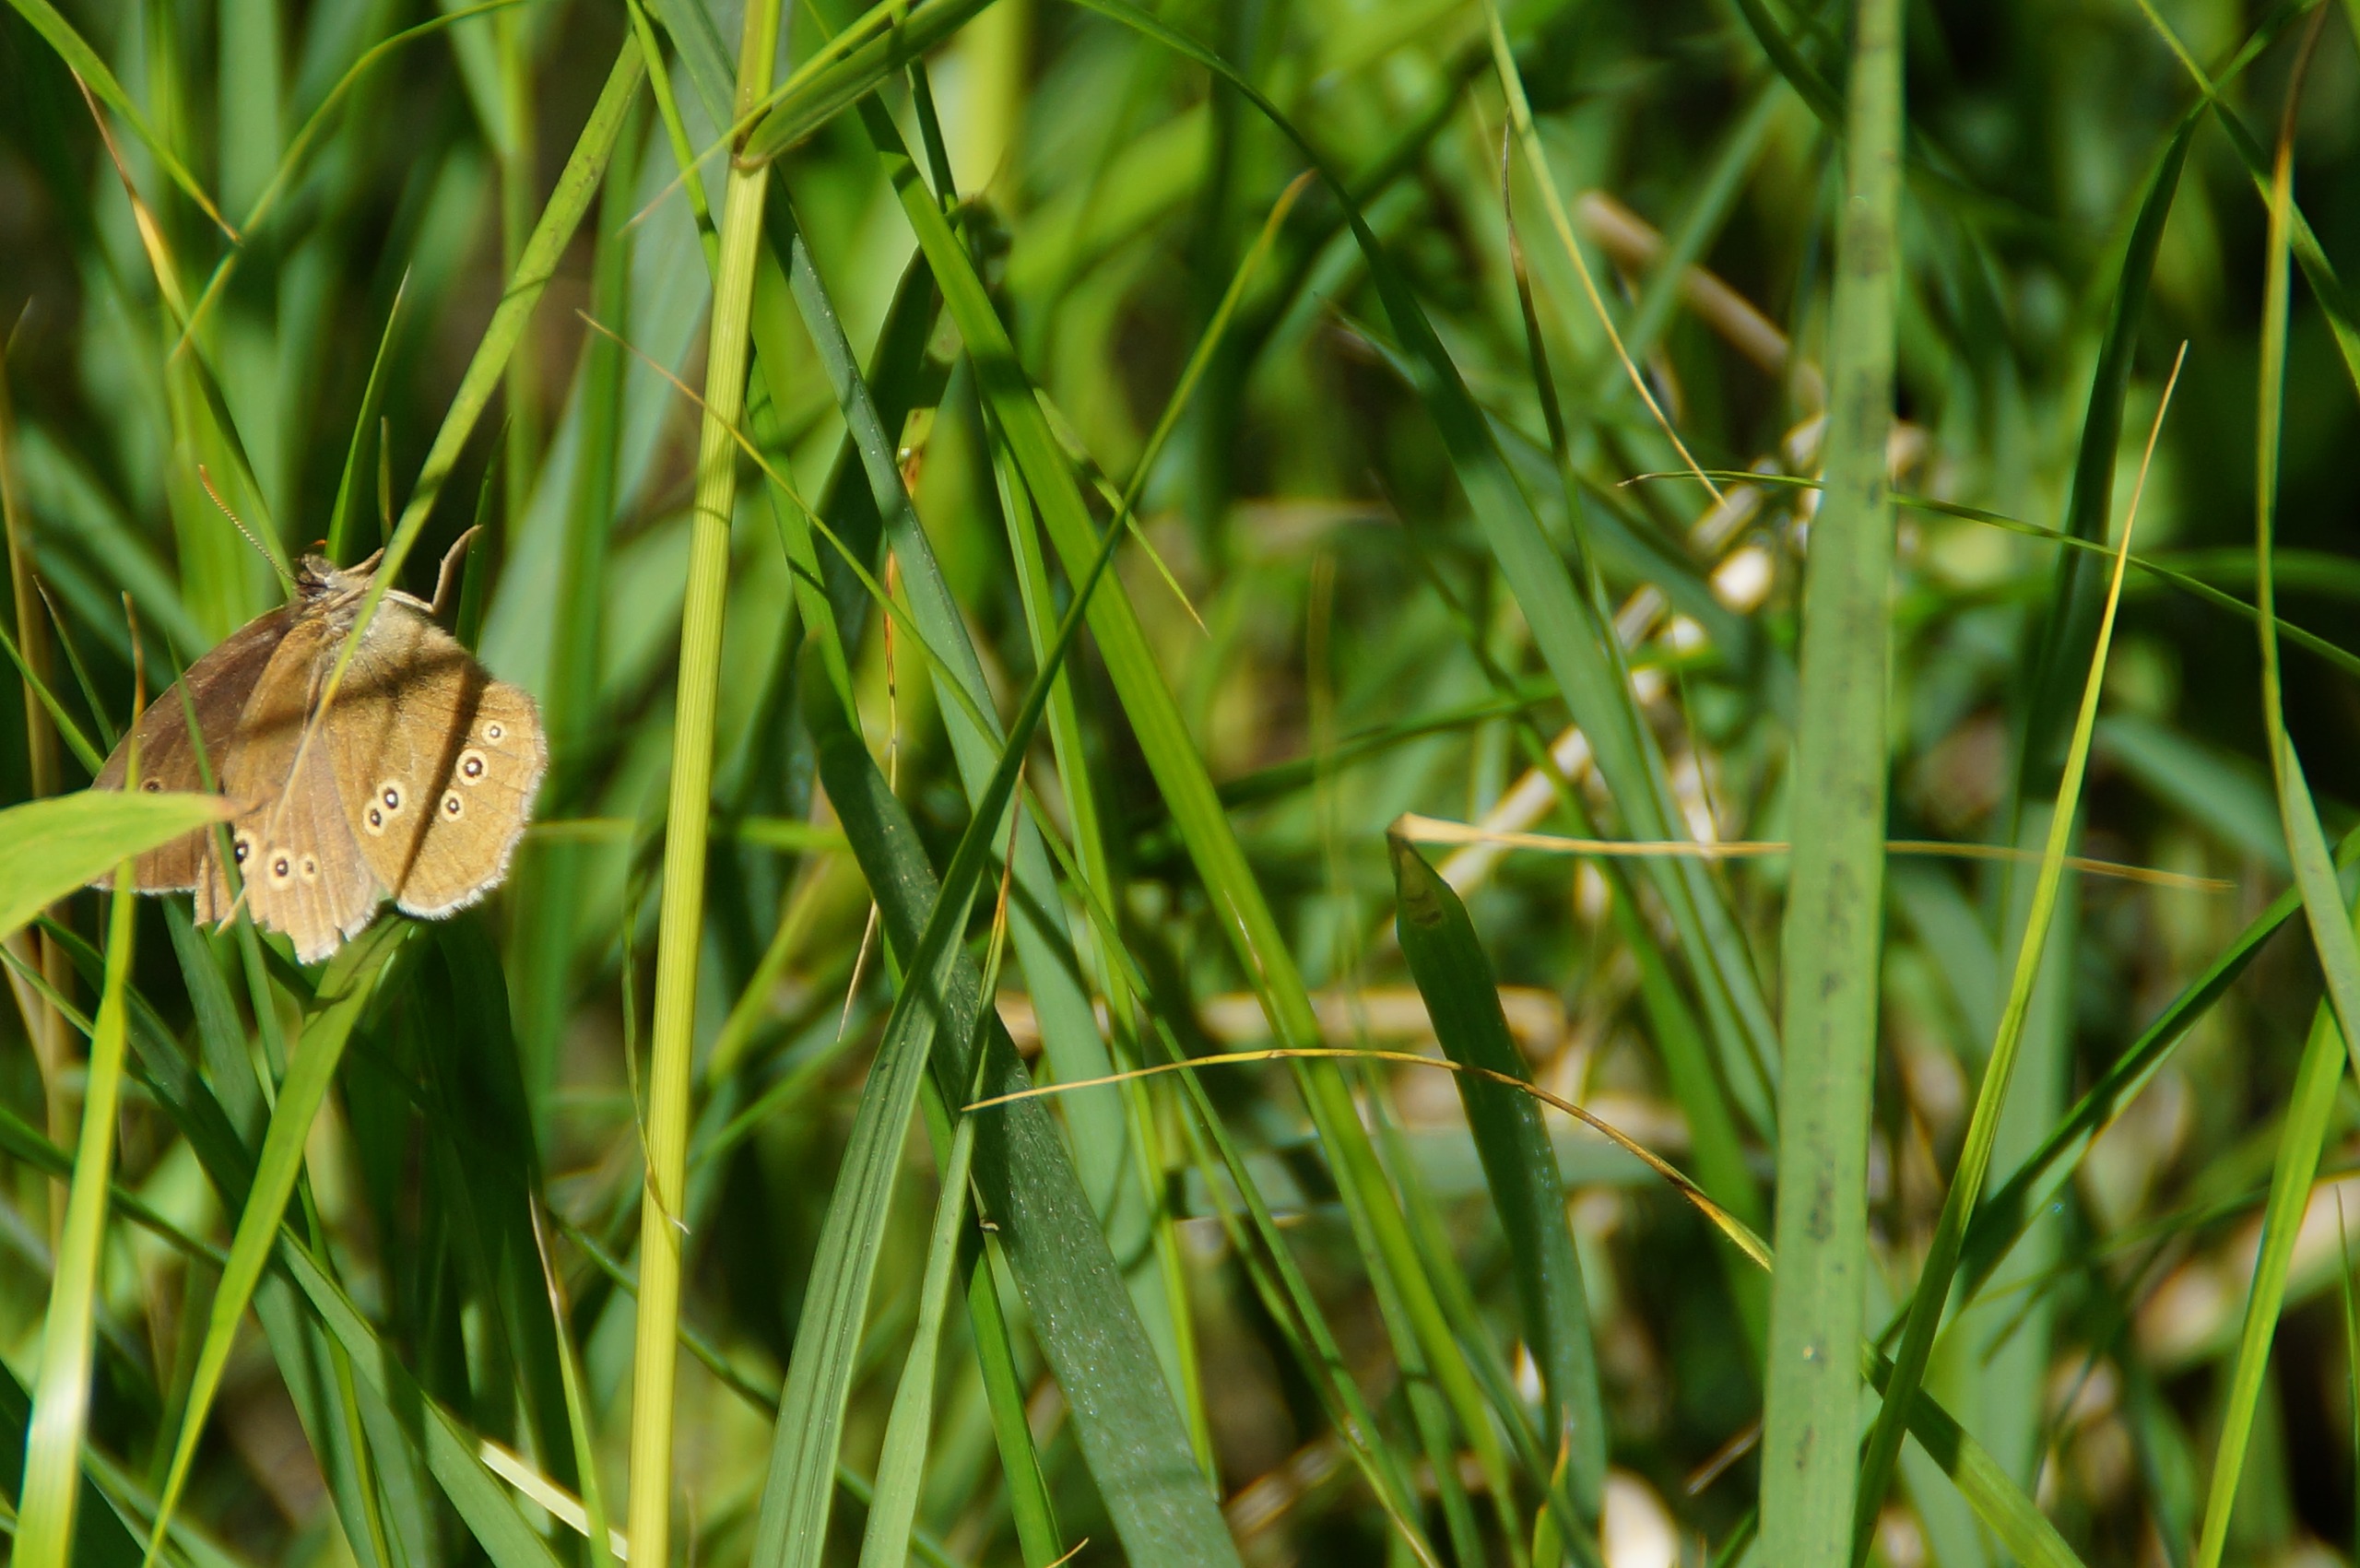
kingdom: Animalia
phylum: Arthropoda
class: Insecta
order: Lepidoptera
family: Nymphalidae
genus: Aphantopus
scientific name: Aphantopus hyperantus
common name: Engrandøje
